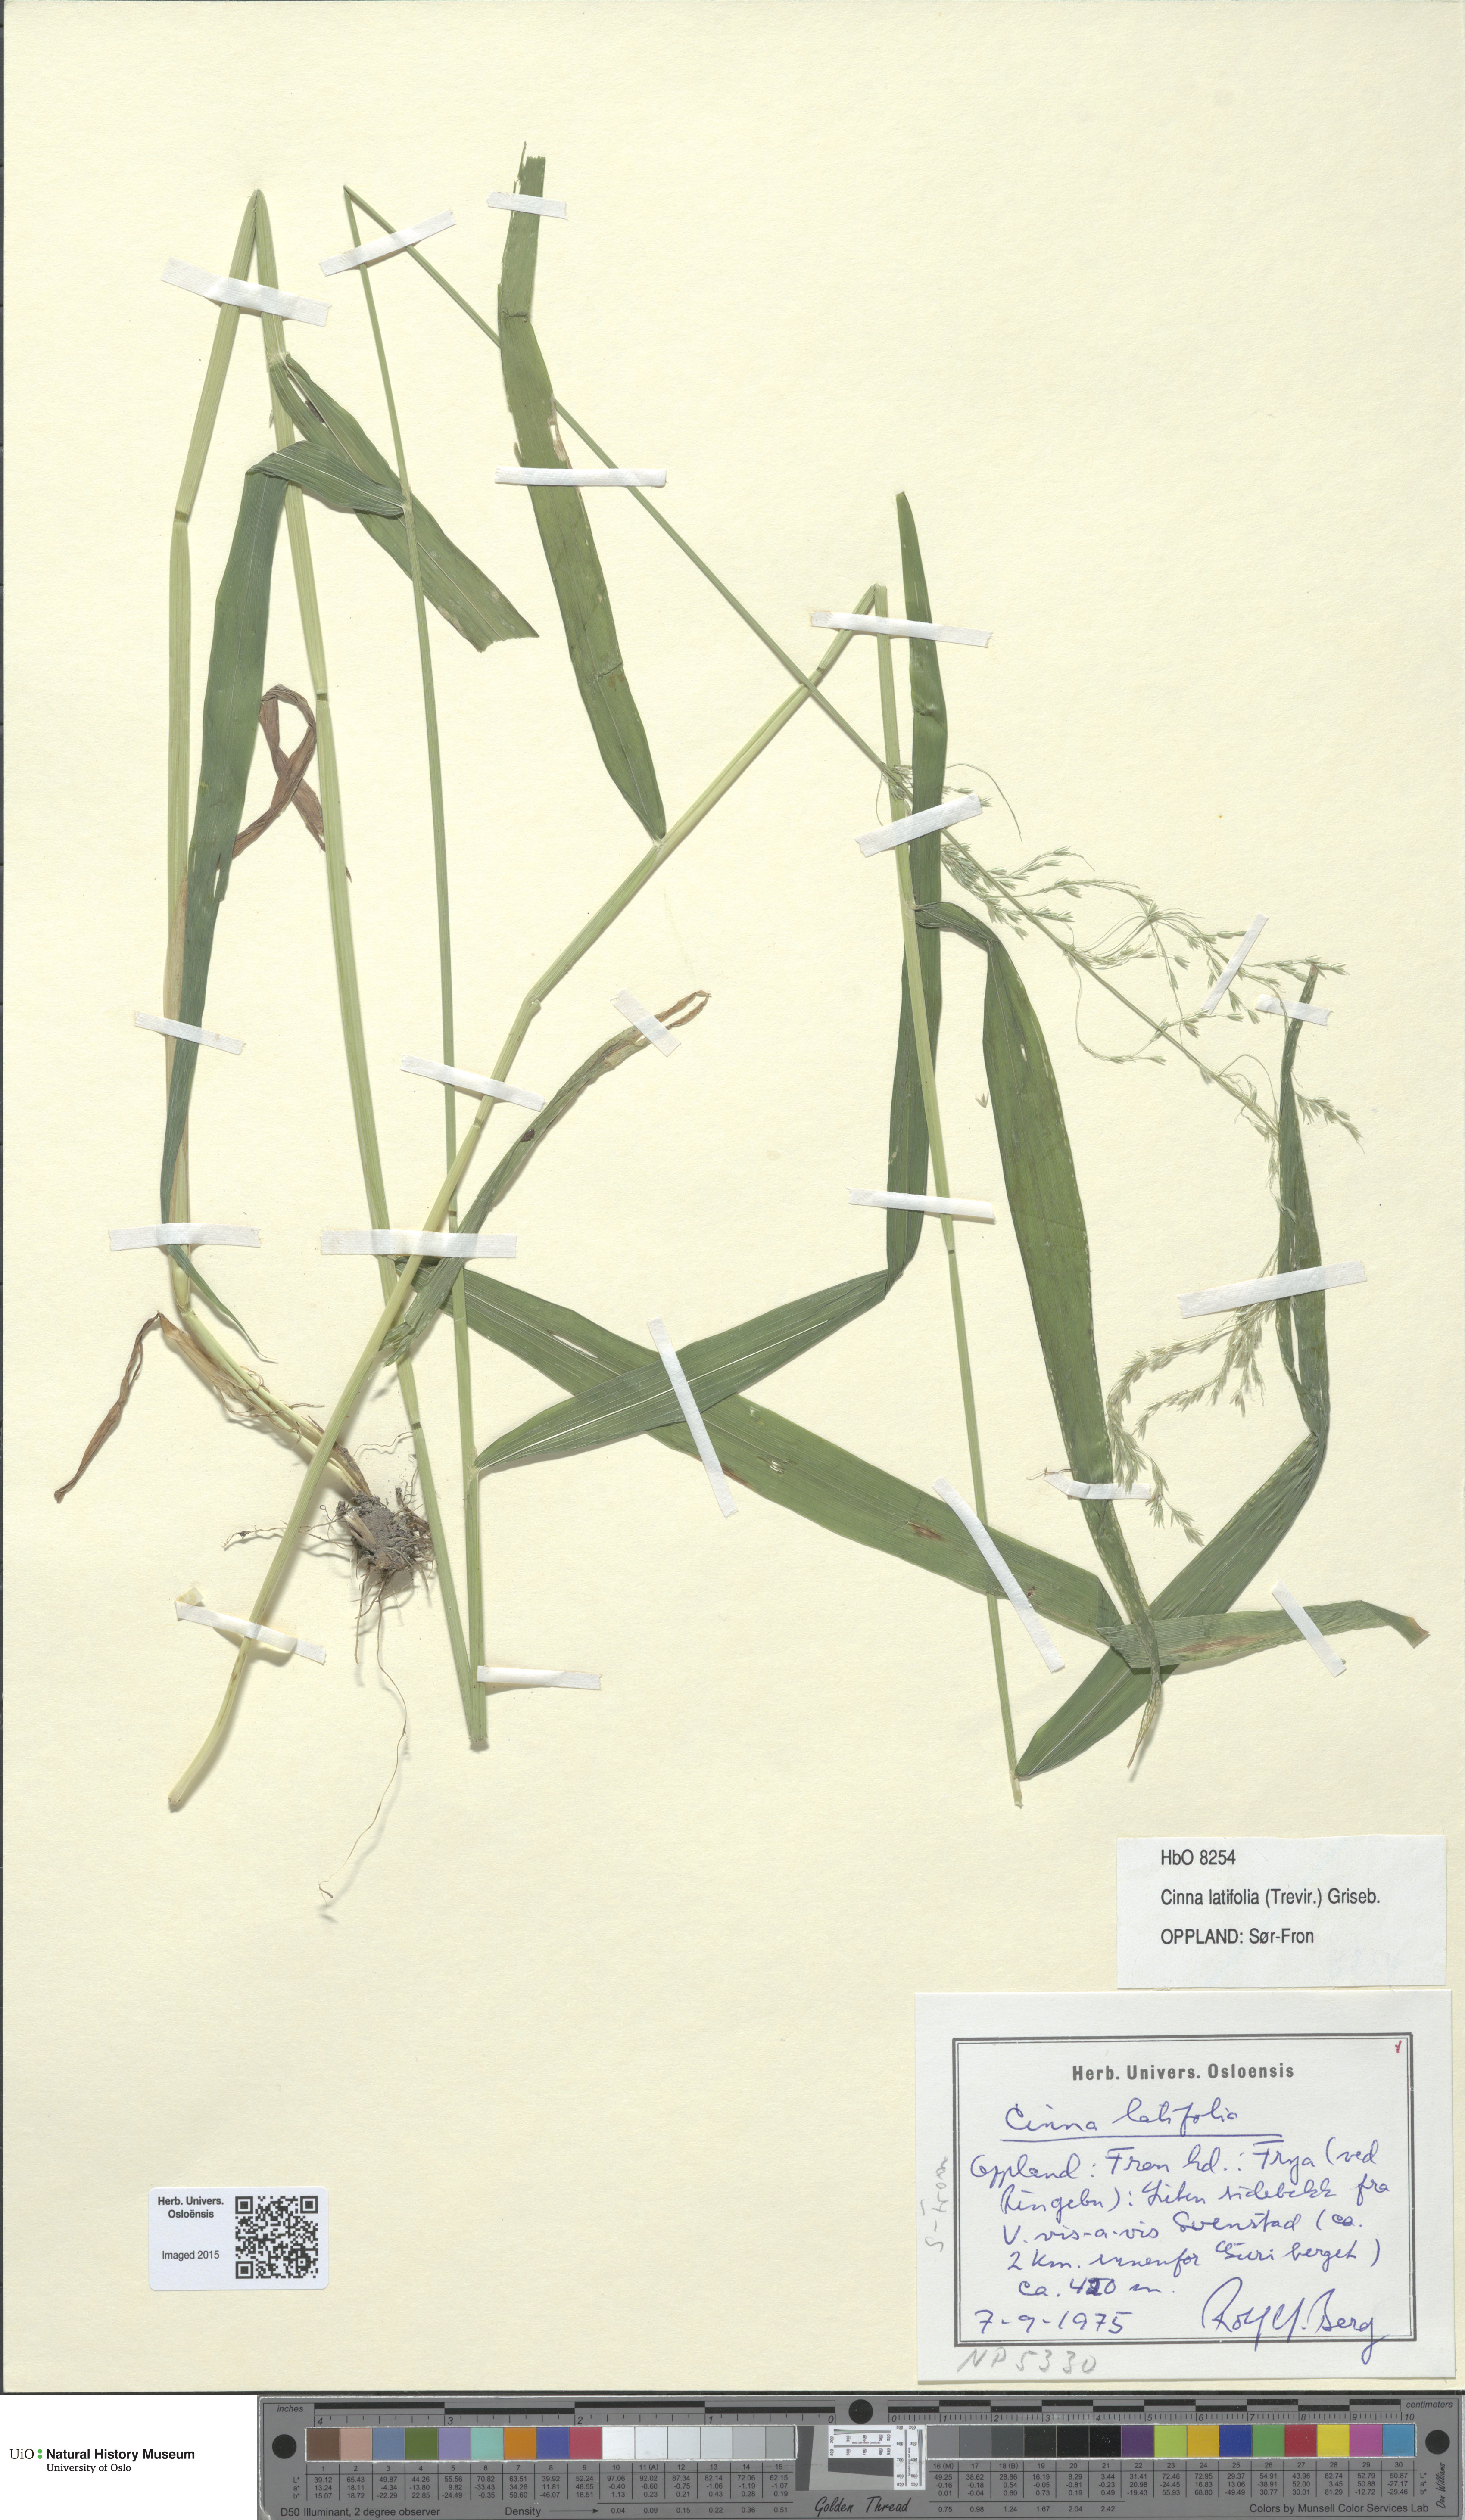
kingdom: Plantae
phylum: Tracheophyta
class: Liliopsida
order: Poales
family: Poaceae
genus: Cinna
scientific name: Cinna latifolia
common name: Drooping woodreed
